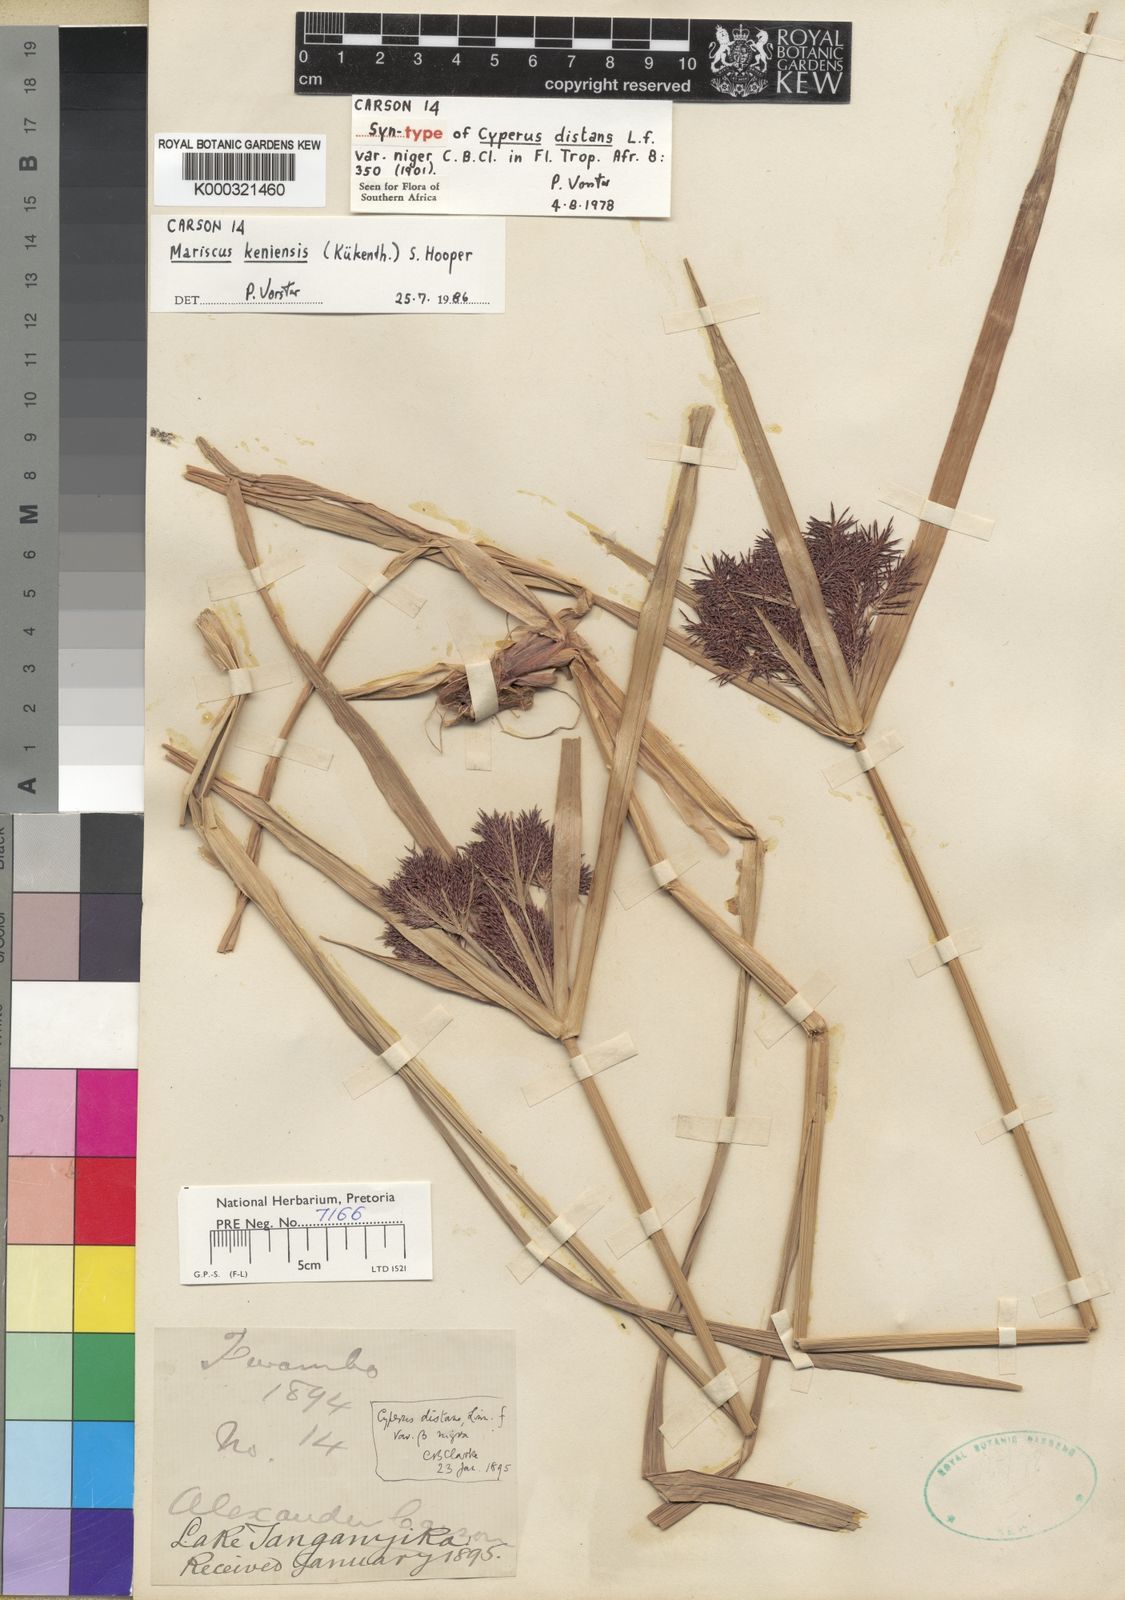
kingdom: Plantae
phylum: Tracheophyta
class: Liliopsida
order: Poales
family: Cyperaceae
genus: Cyperus
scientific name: Cyperus distans
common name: Slender cyperus
